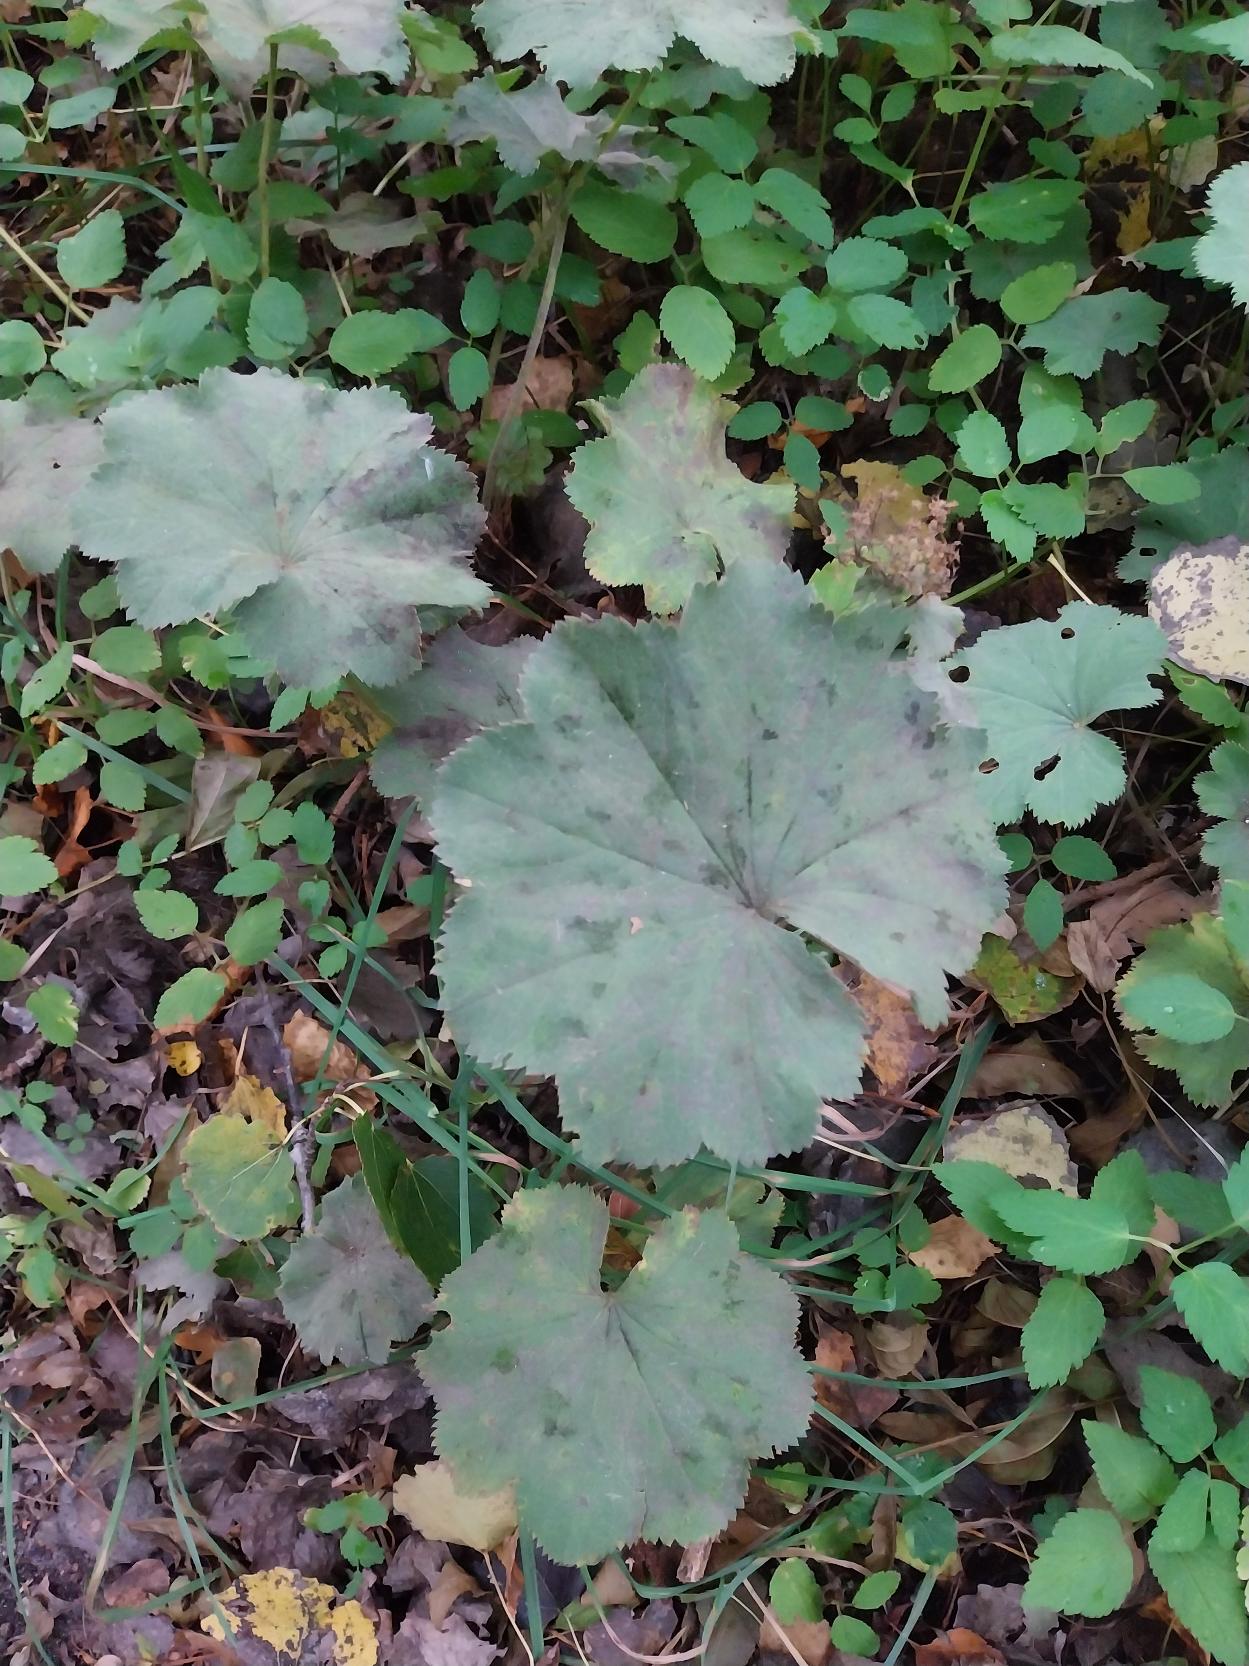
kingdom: Plantae
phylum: Tracheophyta
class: Magnoliopsida
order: Rosales
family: Rosaceae
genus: Alchemilla
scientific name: Alchemilla mollis
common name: Lådden løvefod
